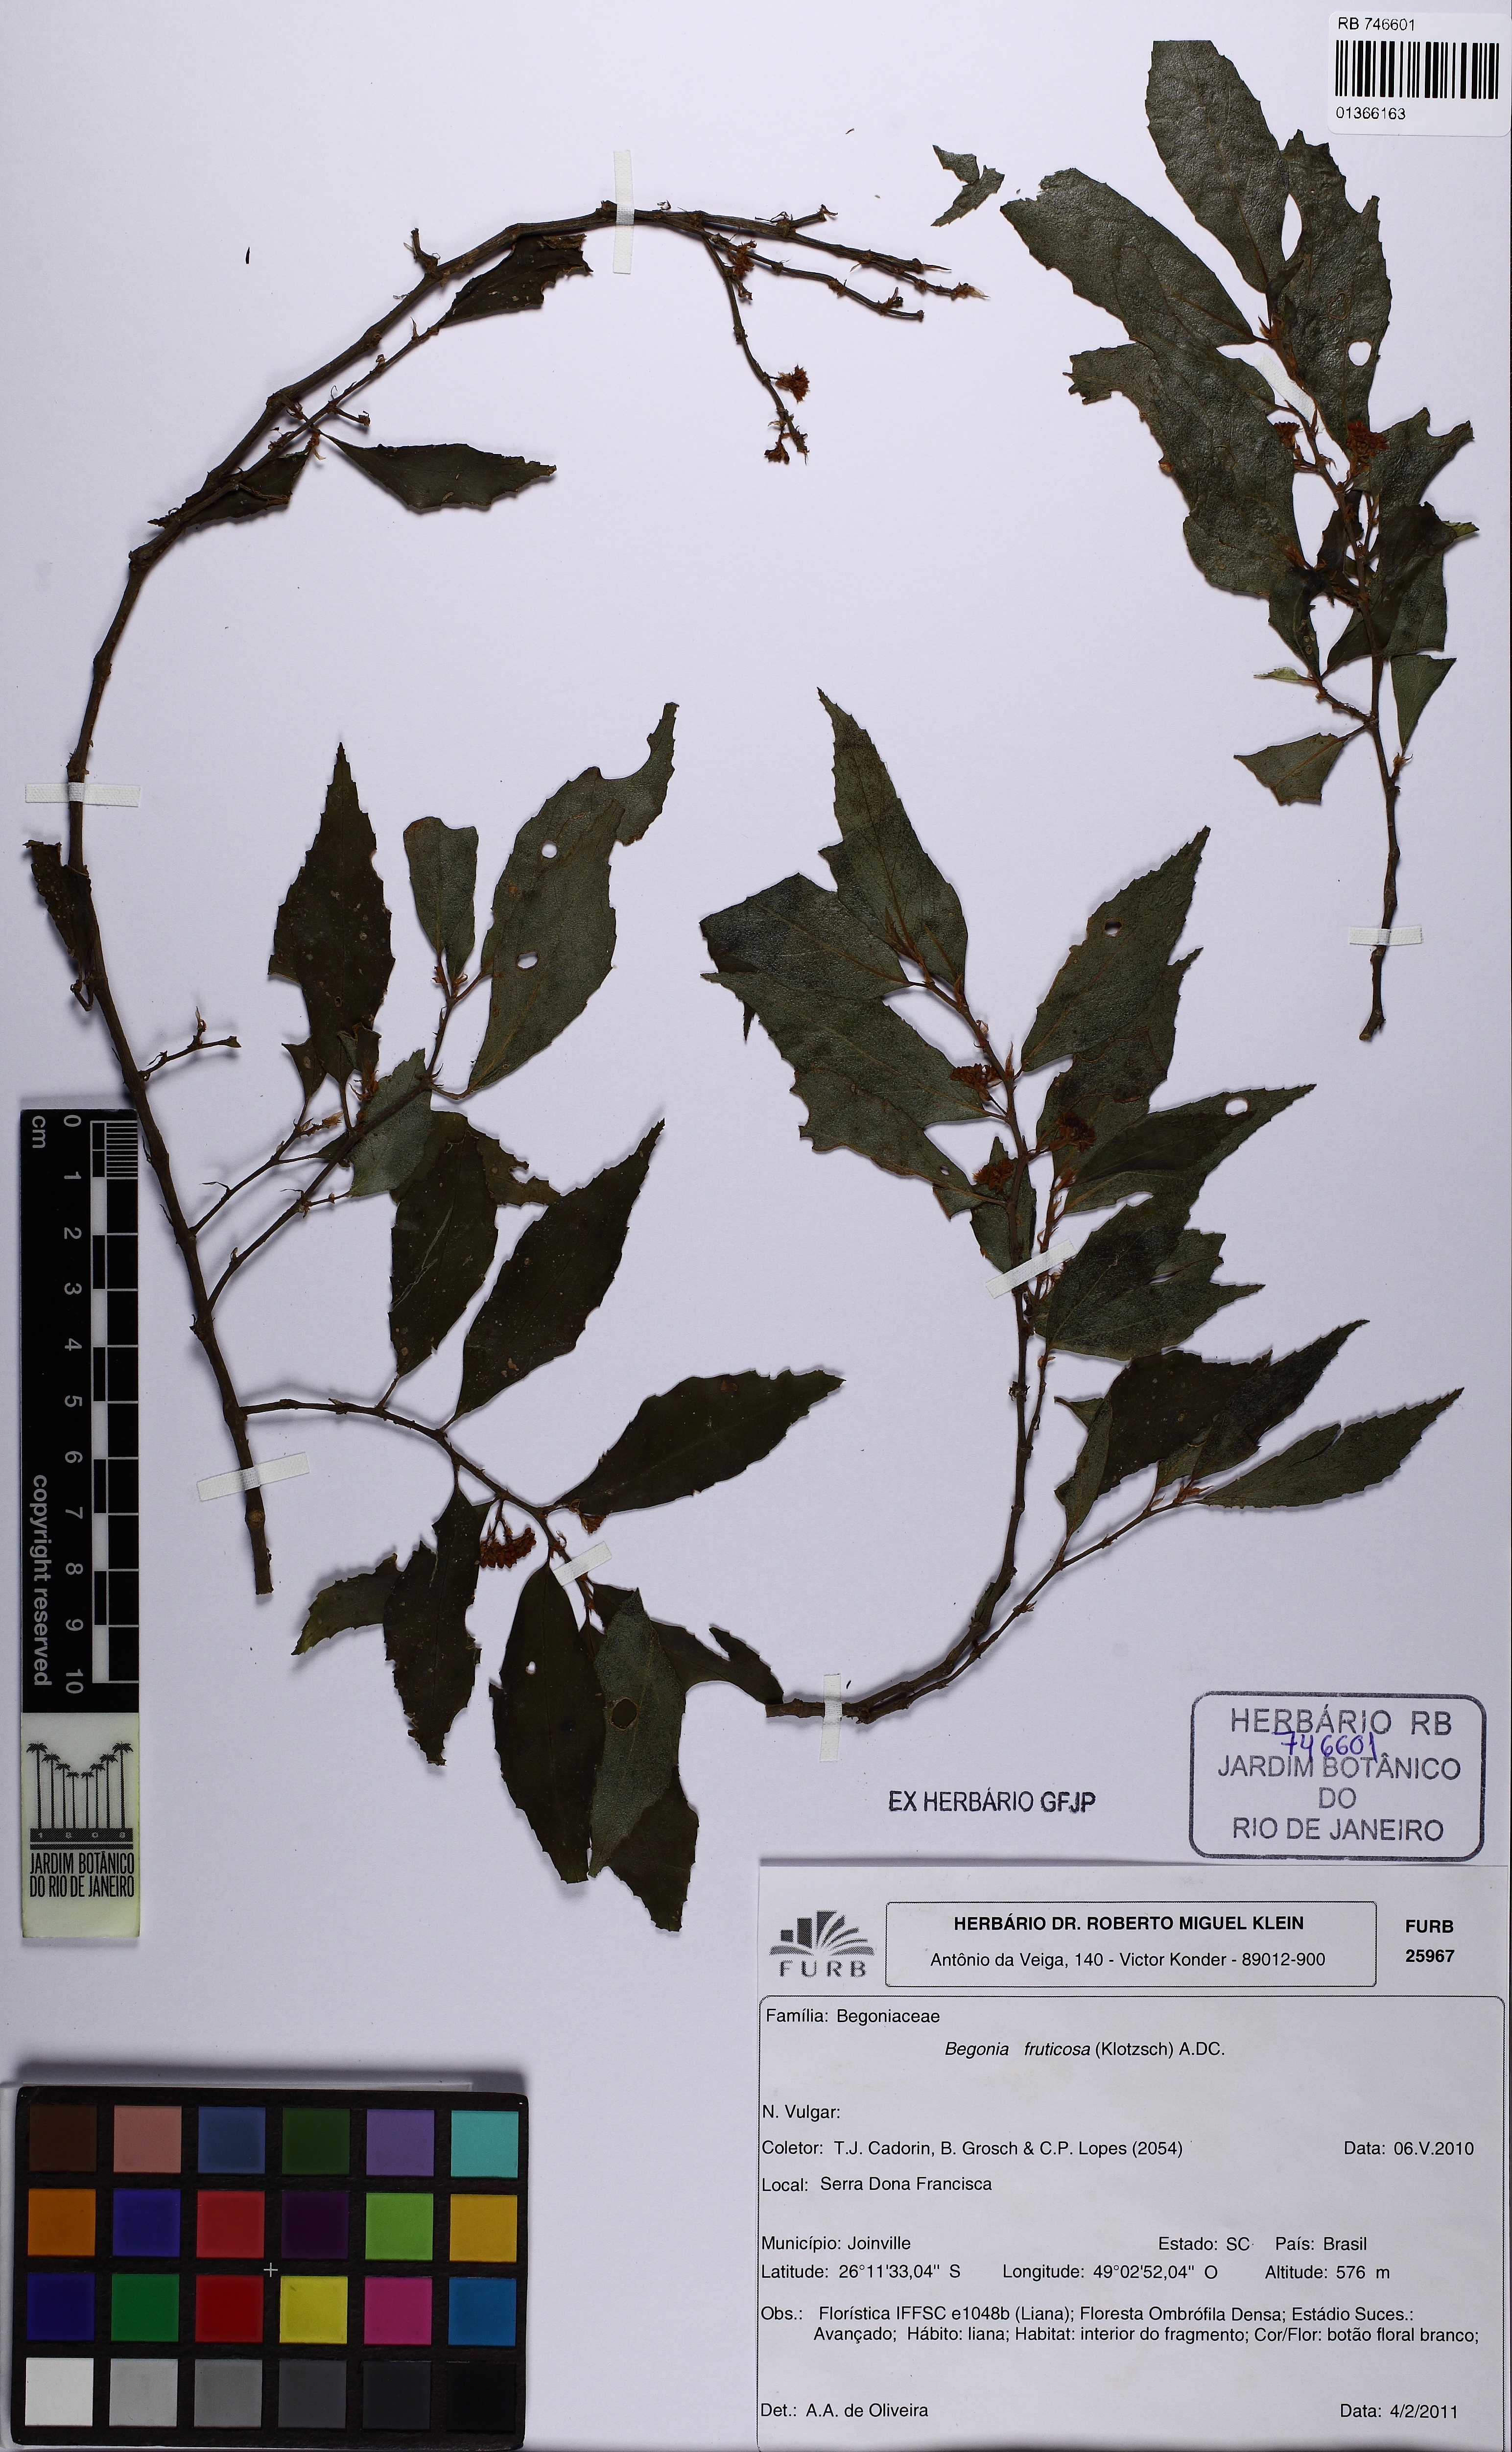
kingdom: Plantae
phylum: Tracheophyta
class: Magnoliopsida
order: Cucurbitales
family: Begoniaceae
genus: Begonia
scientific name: Begonia fruticosa
